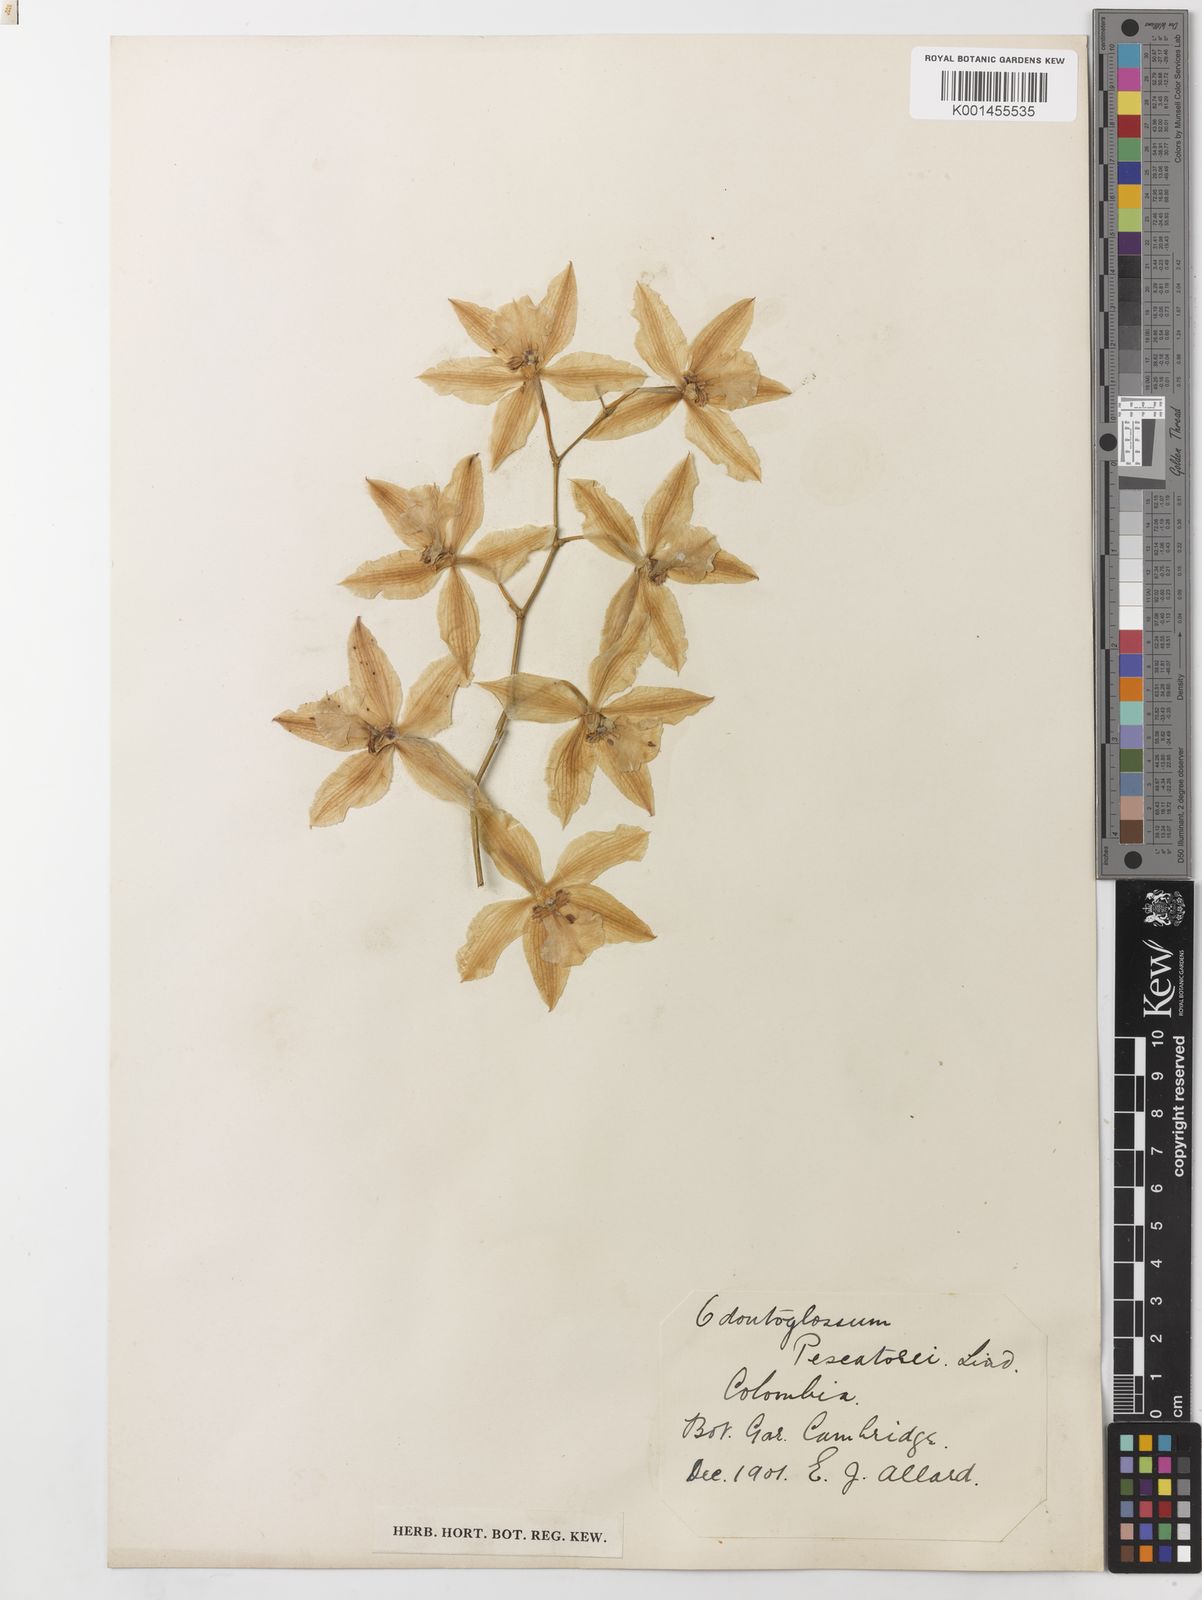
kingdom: Plantae
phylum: Tracheophyta
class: Liliopsida
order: Asparagales
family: Orchidaceae
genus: Oncidium
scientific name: Oncidium nobile
